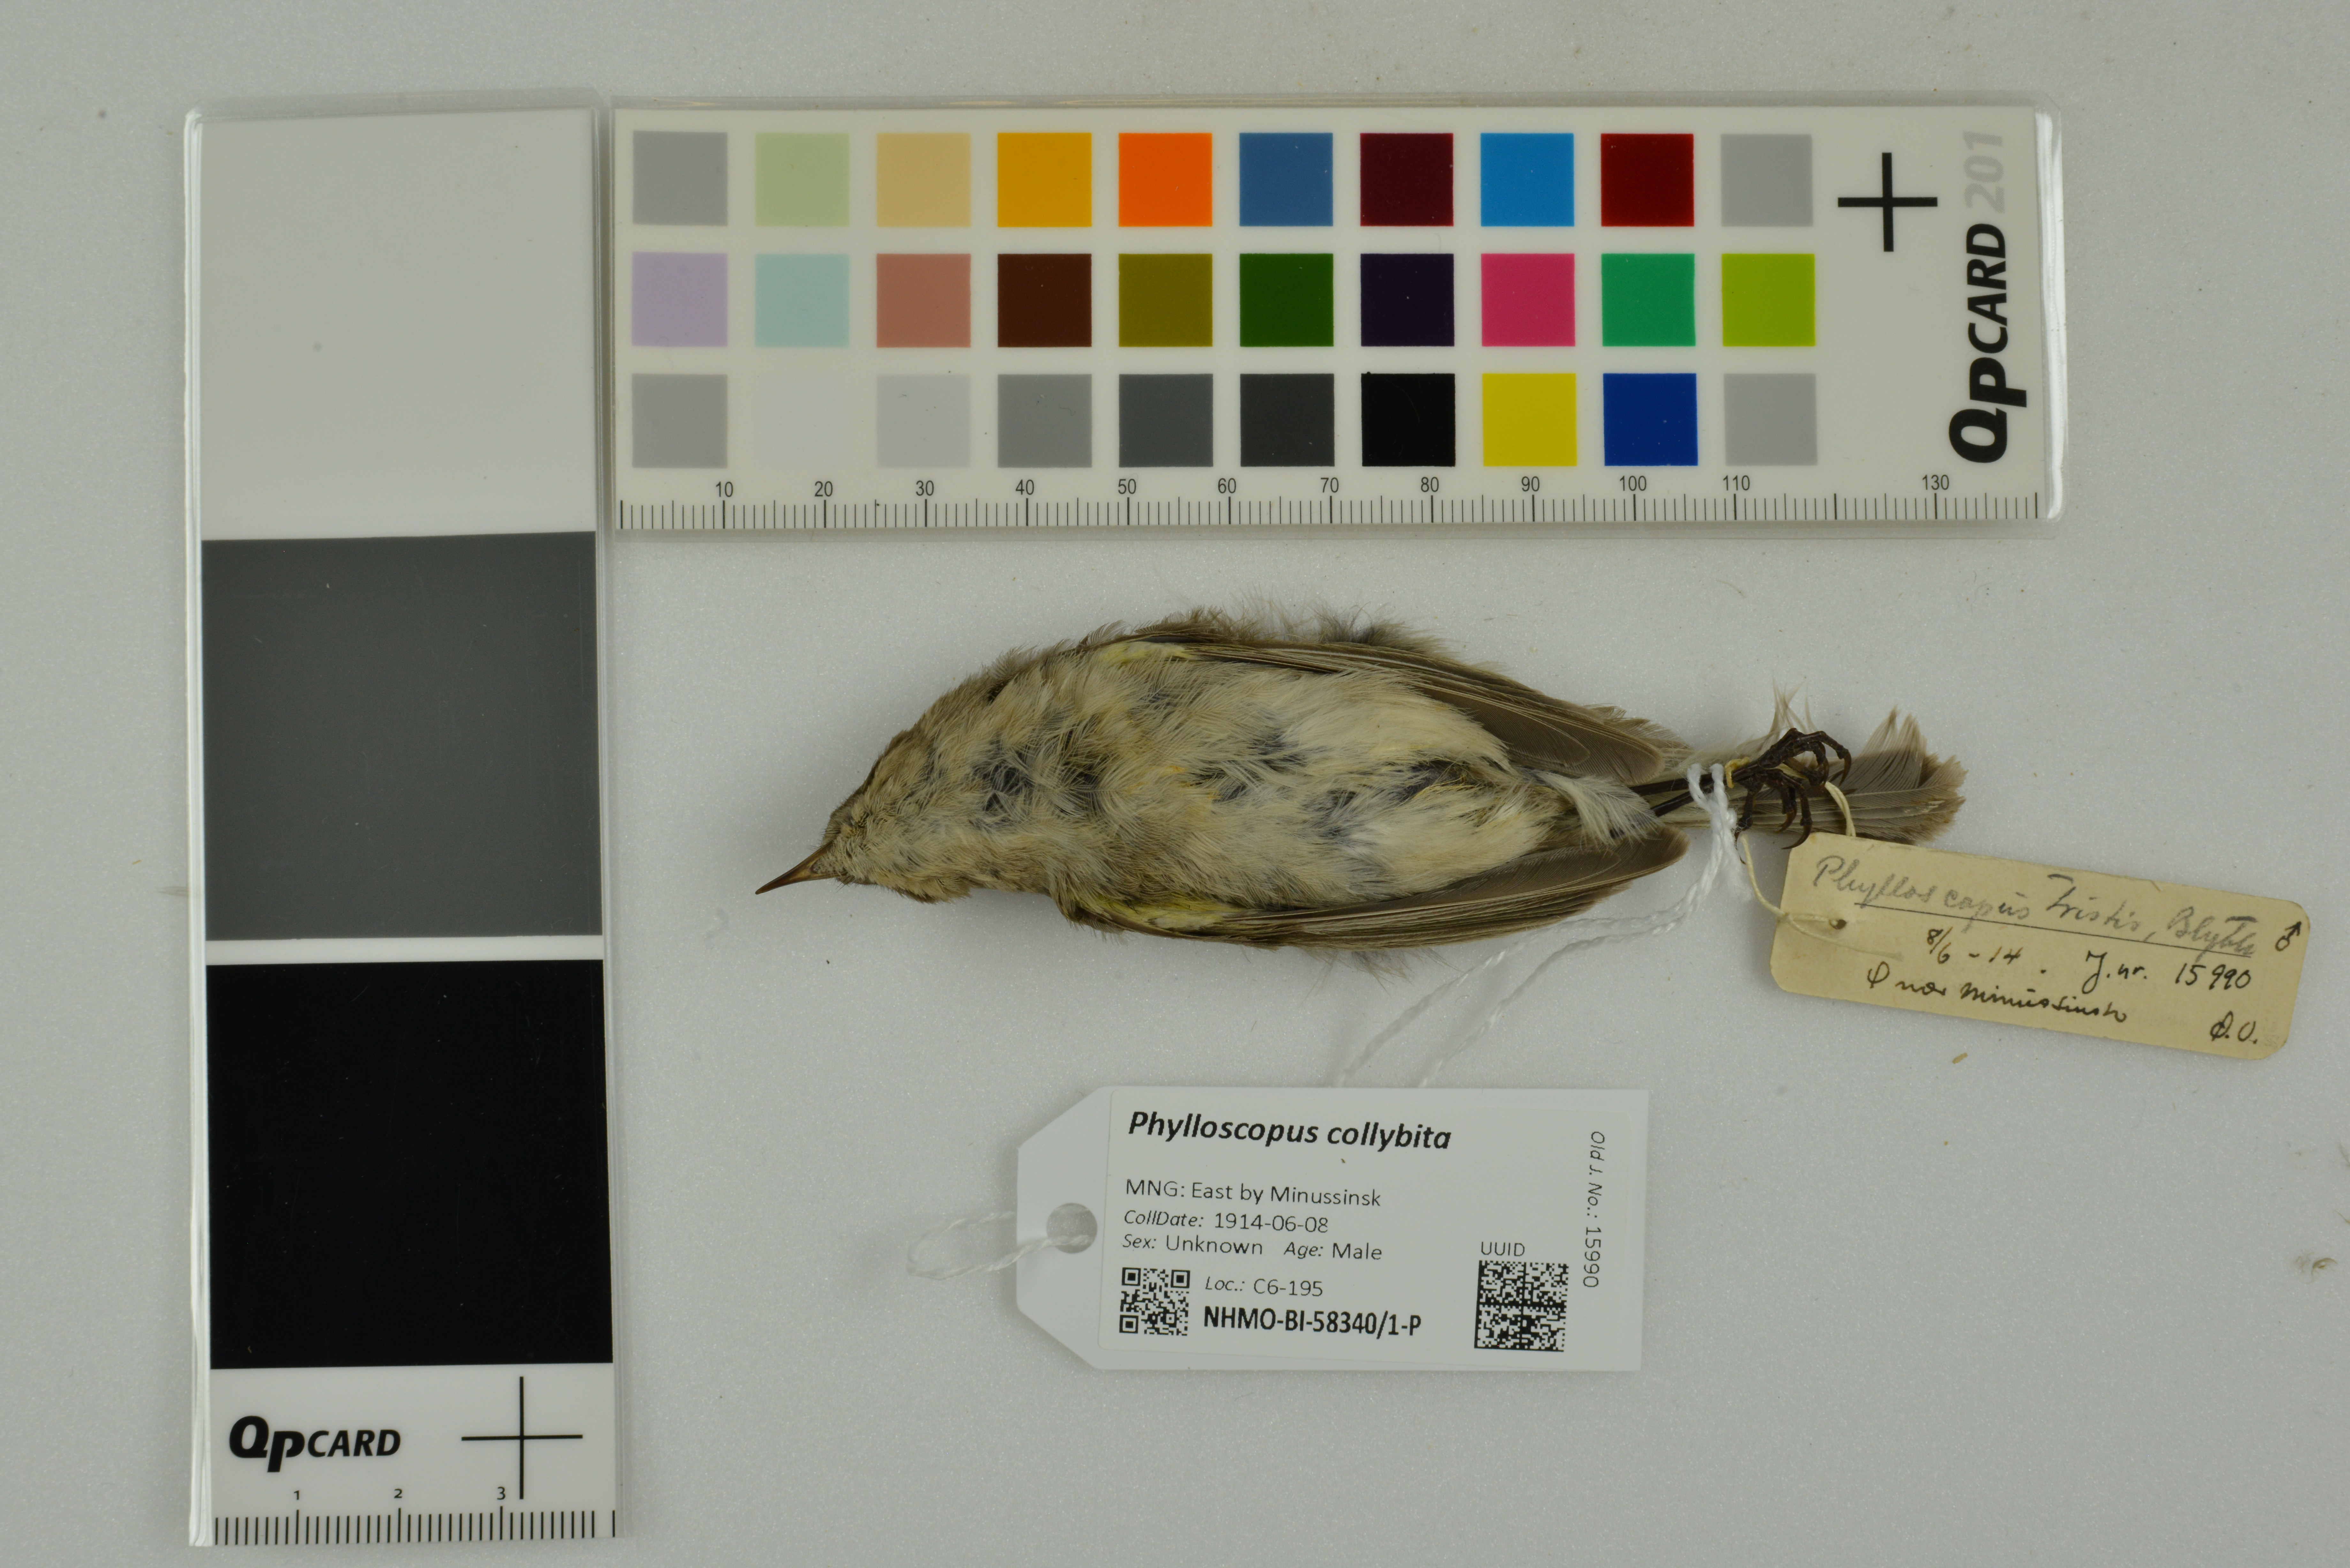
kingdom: Animalia
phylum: Chordata
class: Aves
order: Passeriformes
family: Phylloscopidae
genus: Phylloscopus
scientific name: Phylloscopus collybita
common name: Common chiffchaff
